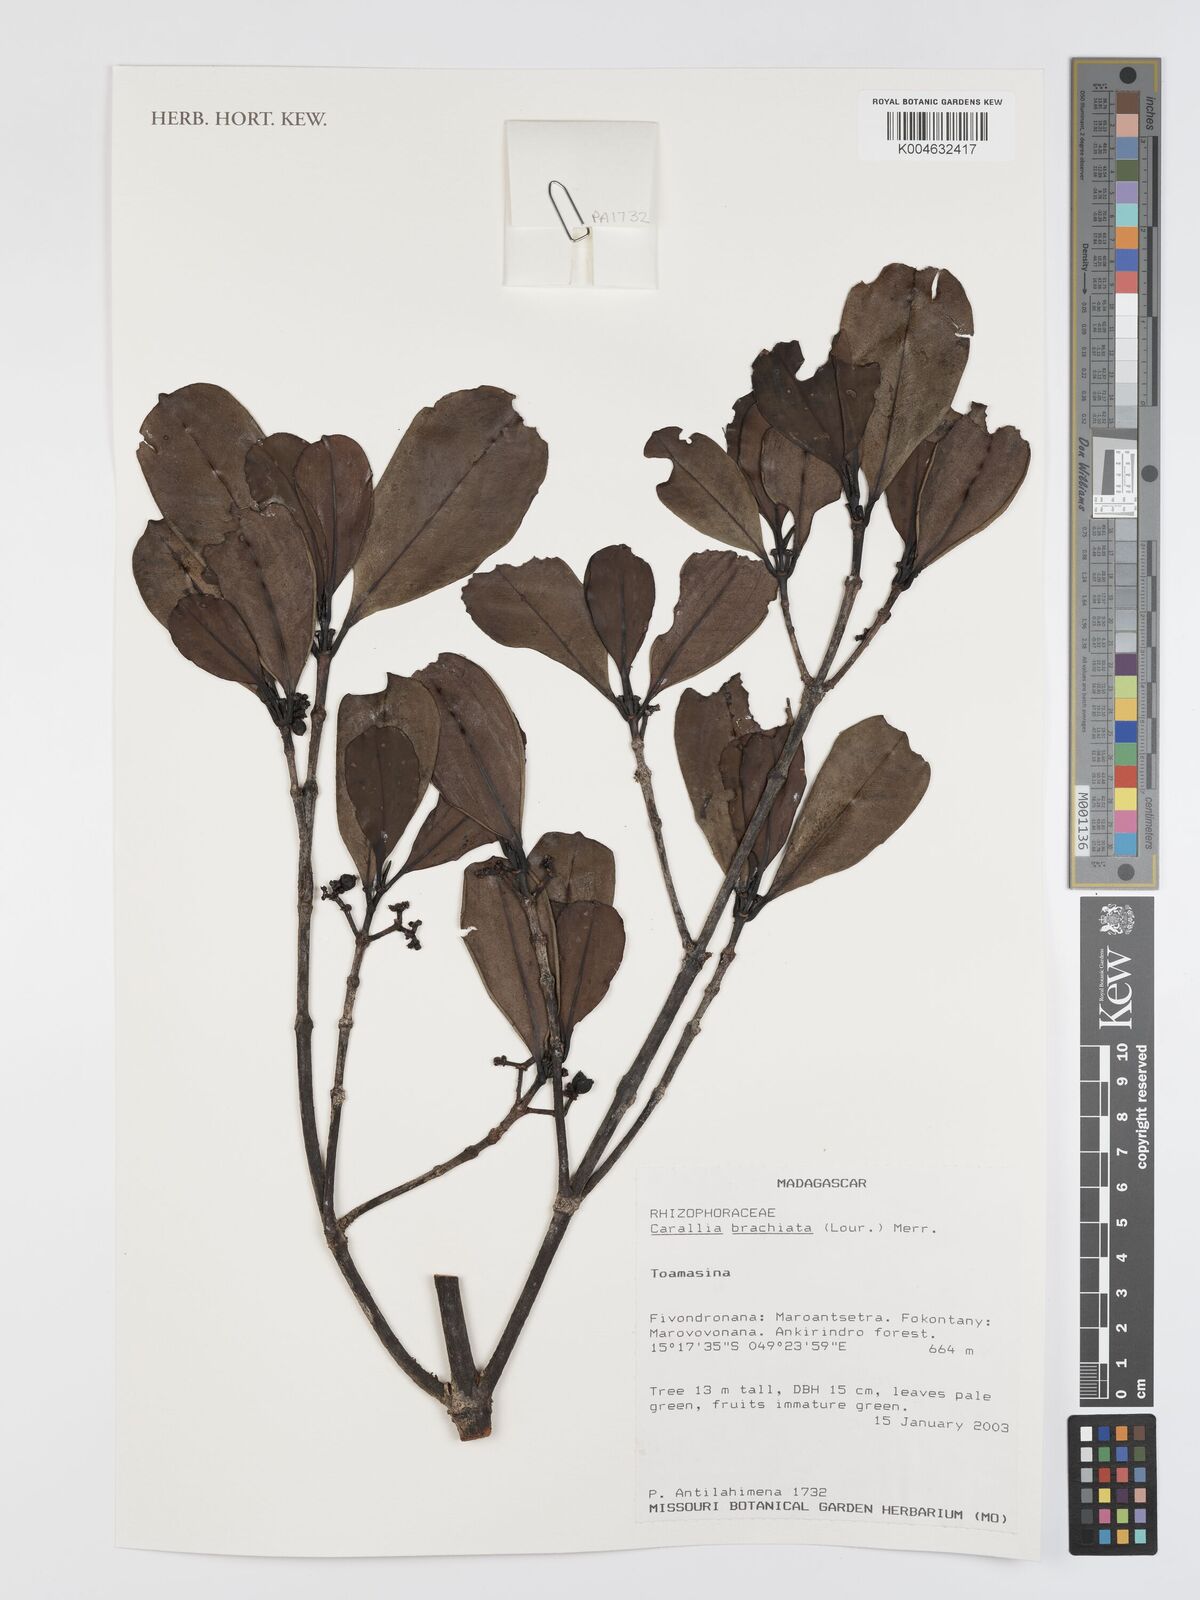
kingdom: Plantae
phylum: Tracheophyta
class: Magnoliopsida
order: Malpighiales
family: Rhizophoraceae
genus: Carallia
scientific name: Carallia brachiata
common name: Carallawood
